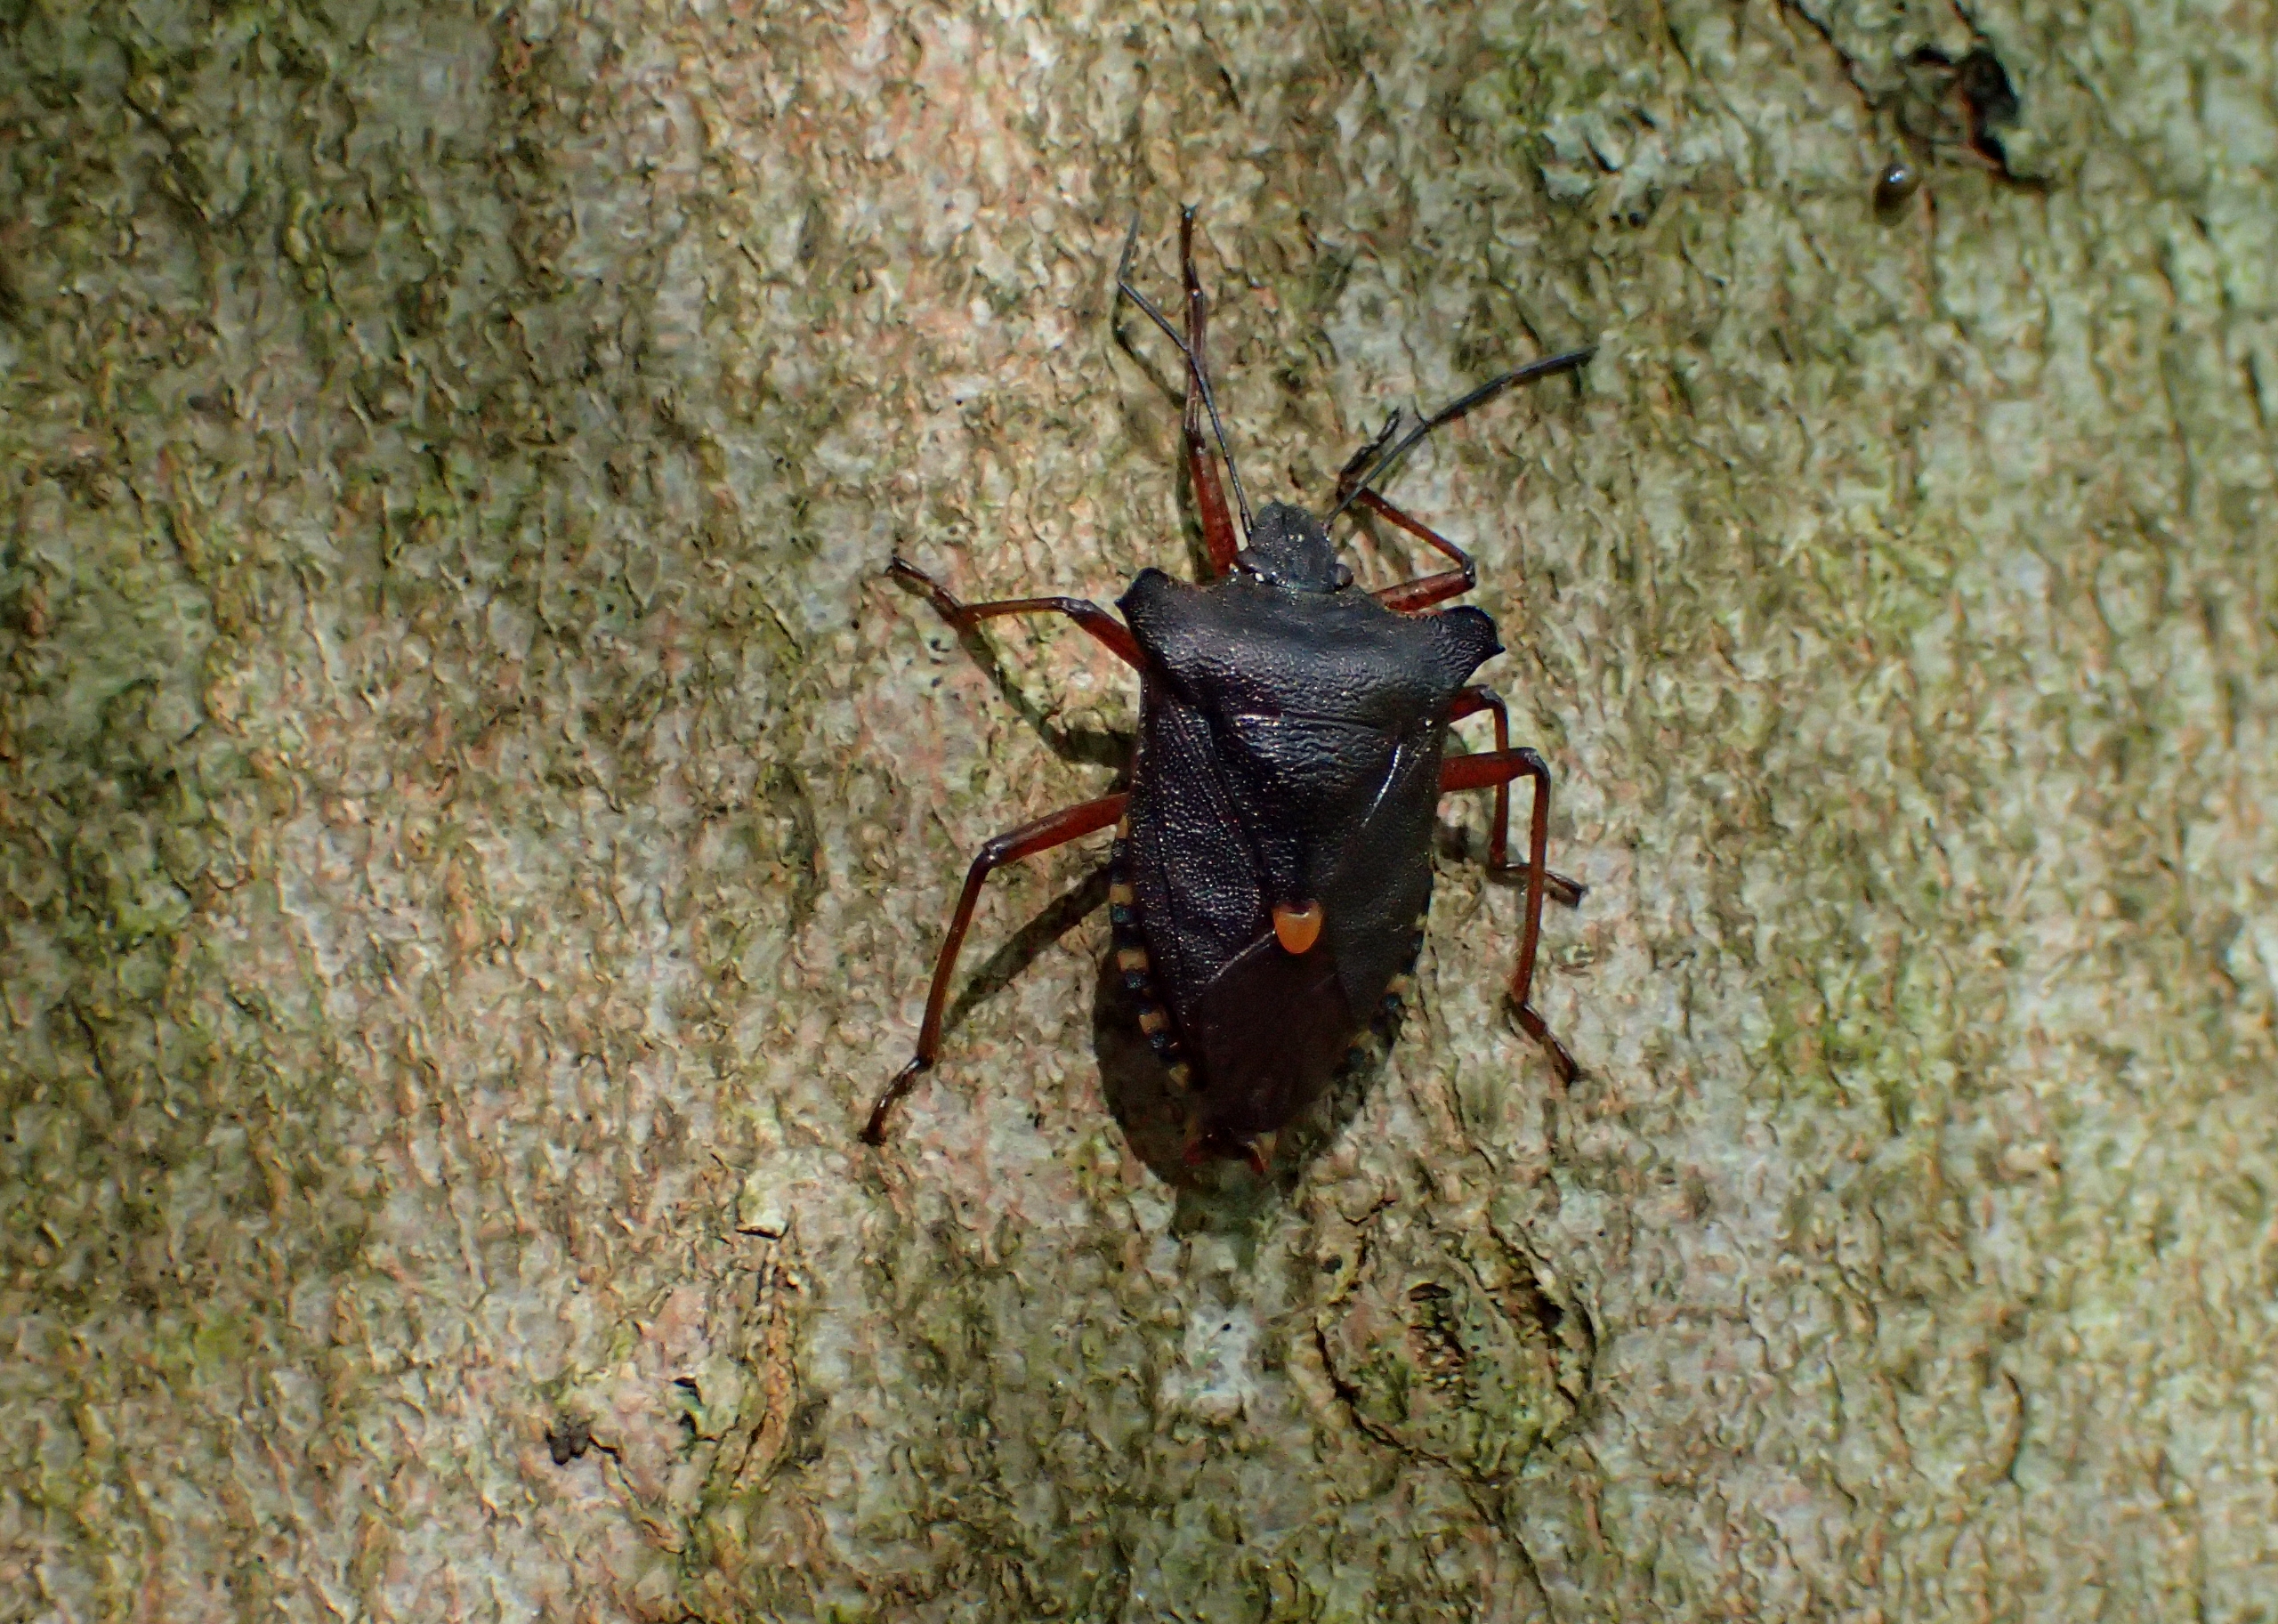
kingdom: Animalia
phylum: Arthropoda
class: Insecta
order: Hemiptera
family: Pentatomidae
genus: Pentatoma
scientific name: Pentatoma rufipes
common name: Rødbenet bredtæge
